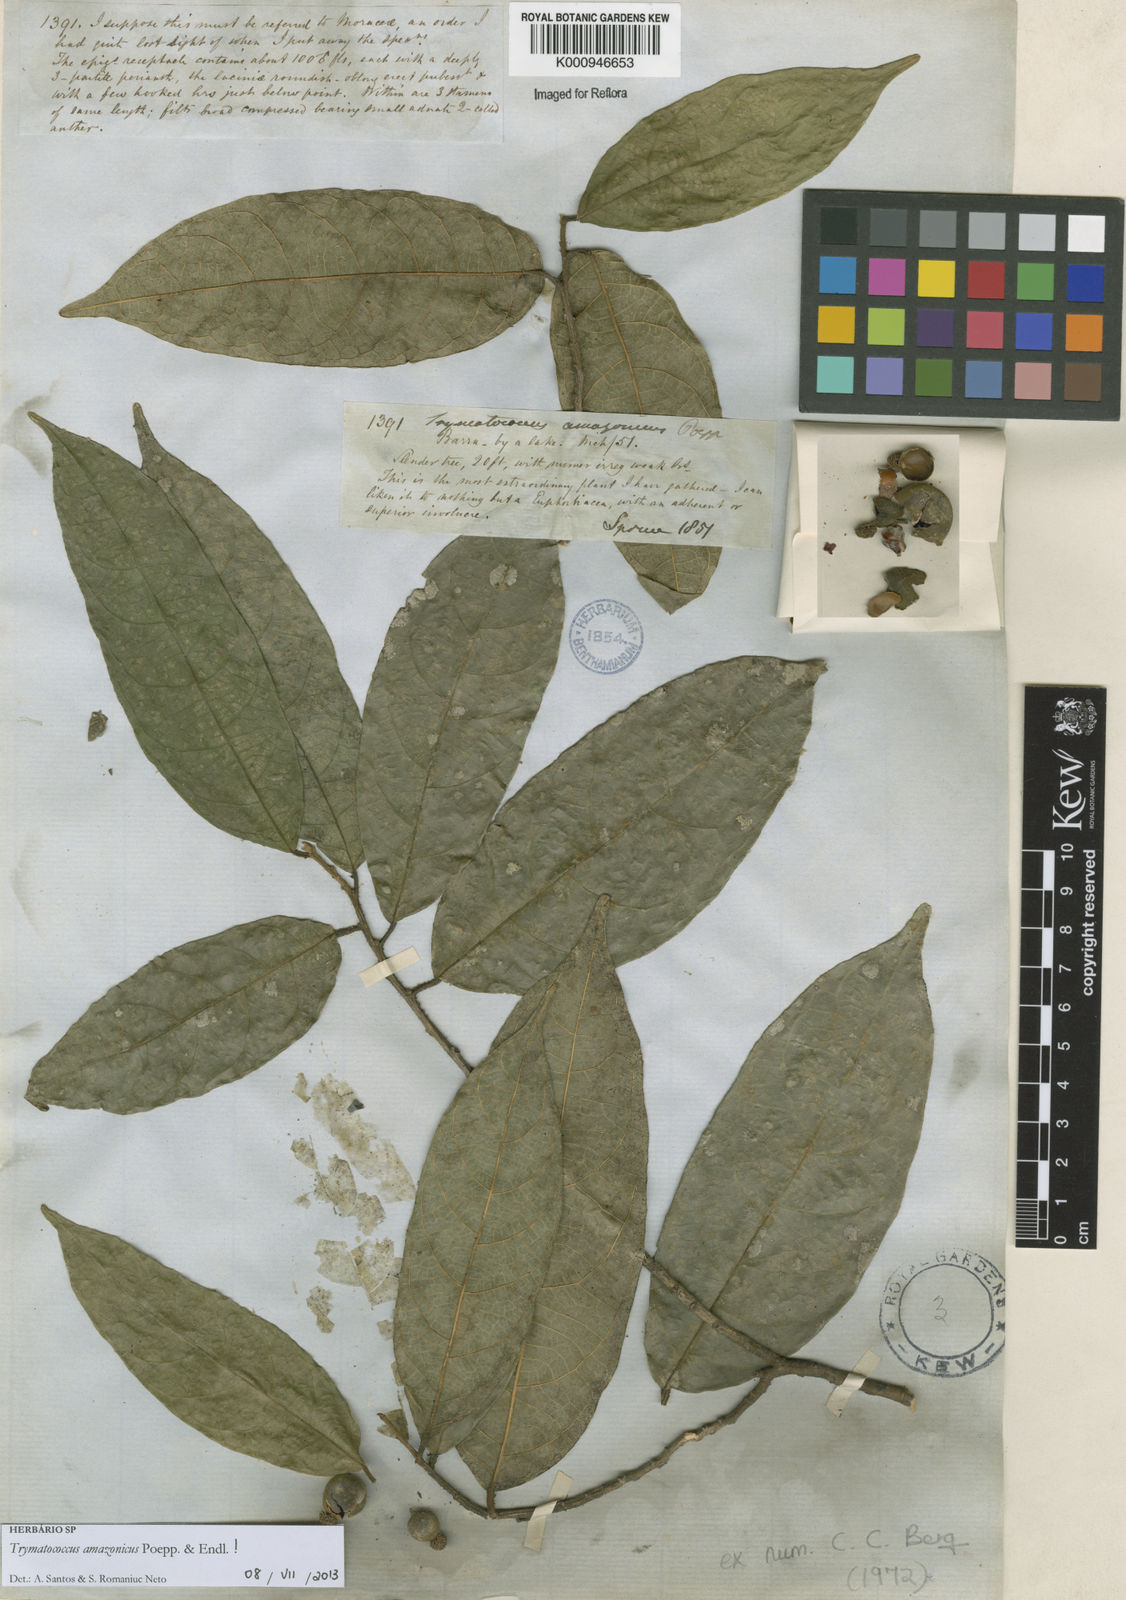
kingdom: Plantae
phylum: Tracheophyta
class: Magnoliopsida
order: Rosales
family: Moraceae
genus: Brosimum
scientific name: Brosimum amazonicum
